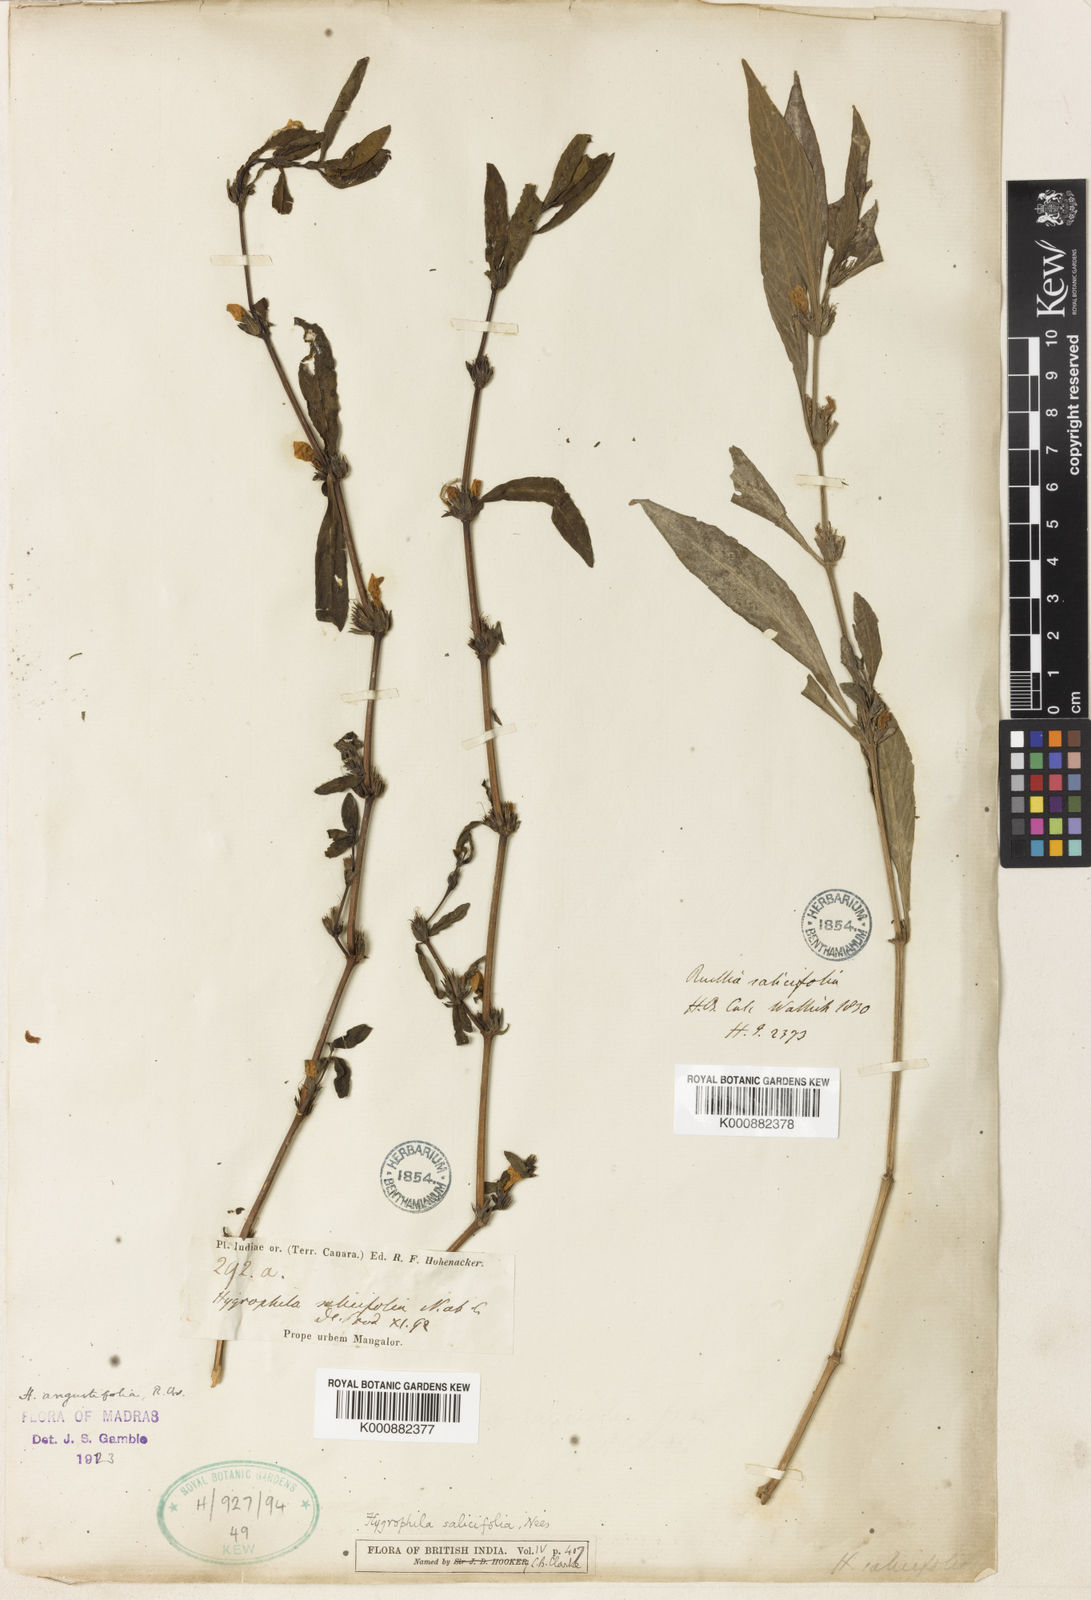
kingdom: Plantae
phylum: Tracheophyta
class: Magnoliopsida
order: Lamiales
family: Acanthaceae
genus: Hygrophila
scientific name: Hygrophila ringens
